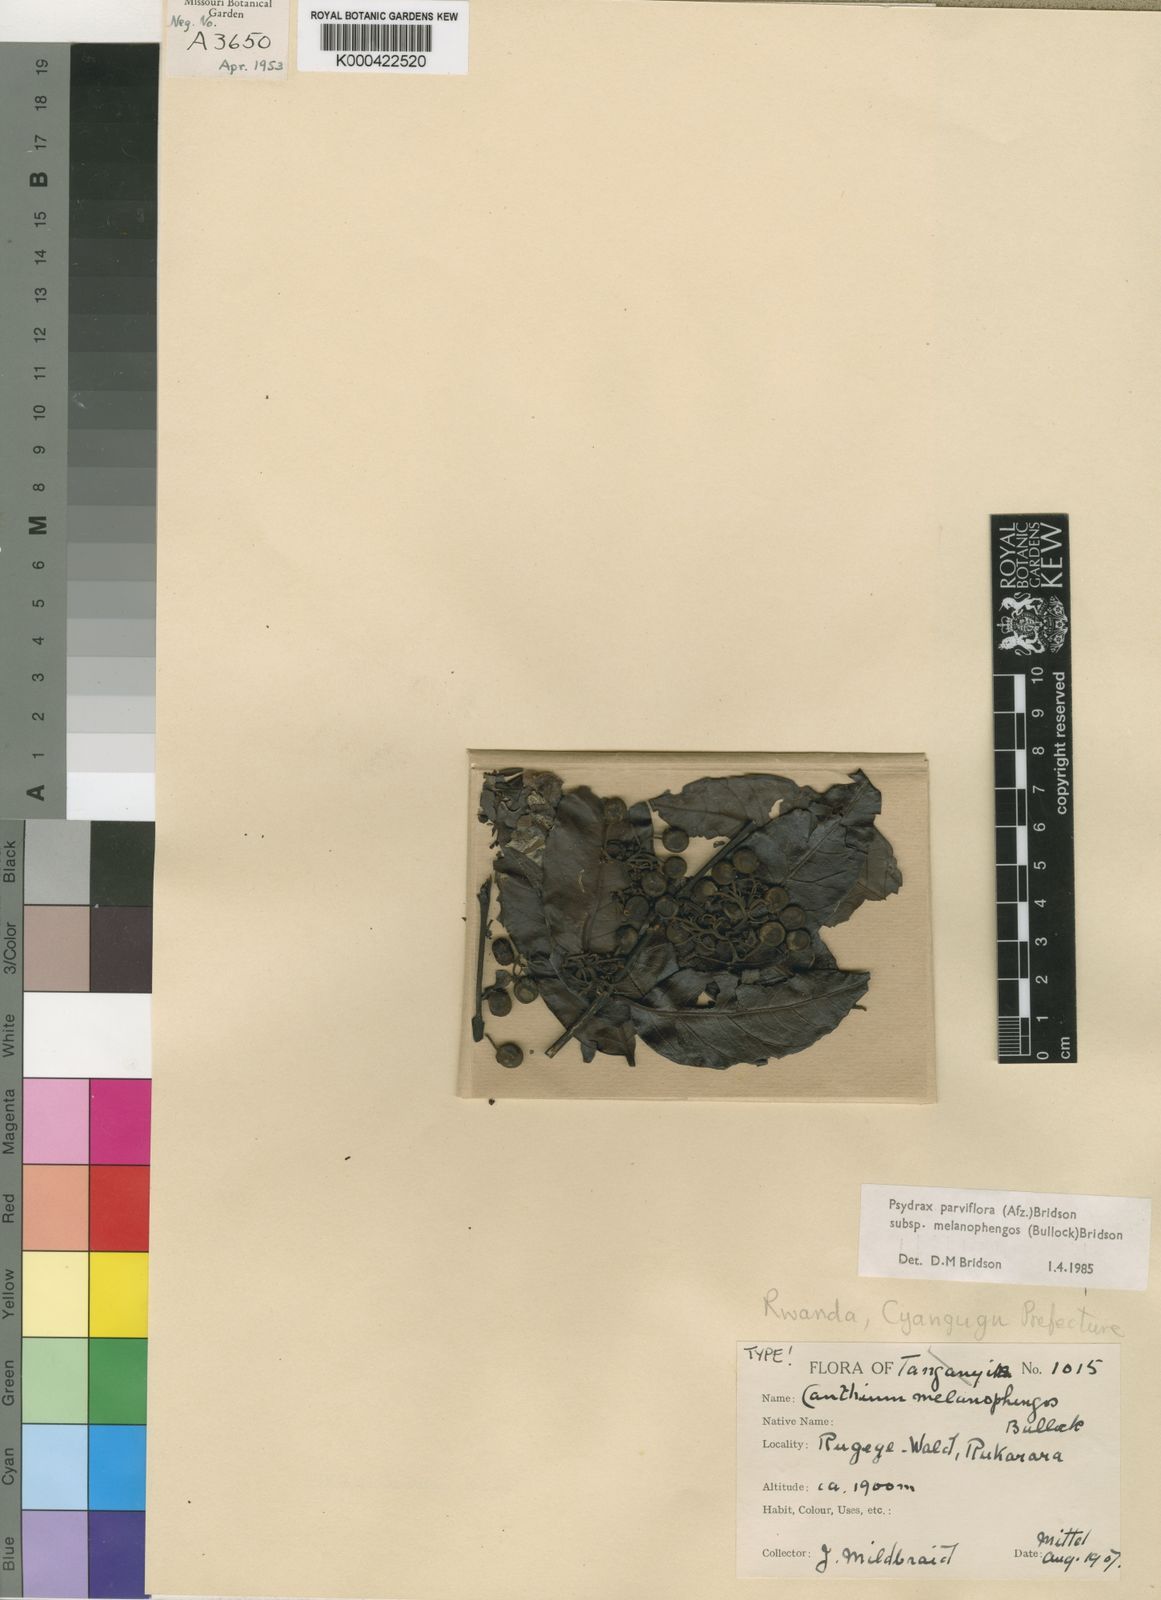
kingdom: Plantae
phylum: Tracheophyta
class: Magnoliopsida
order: Gentianales
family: Rubiaceae
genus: Psydrax
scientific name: Psydrax parviflorus
